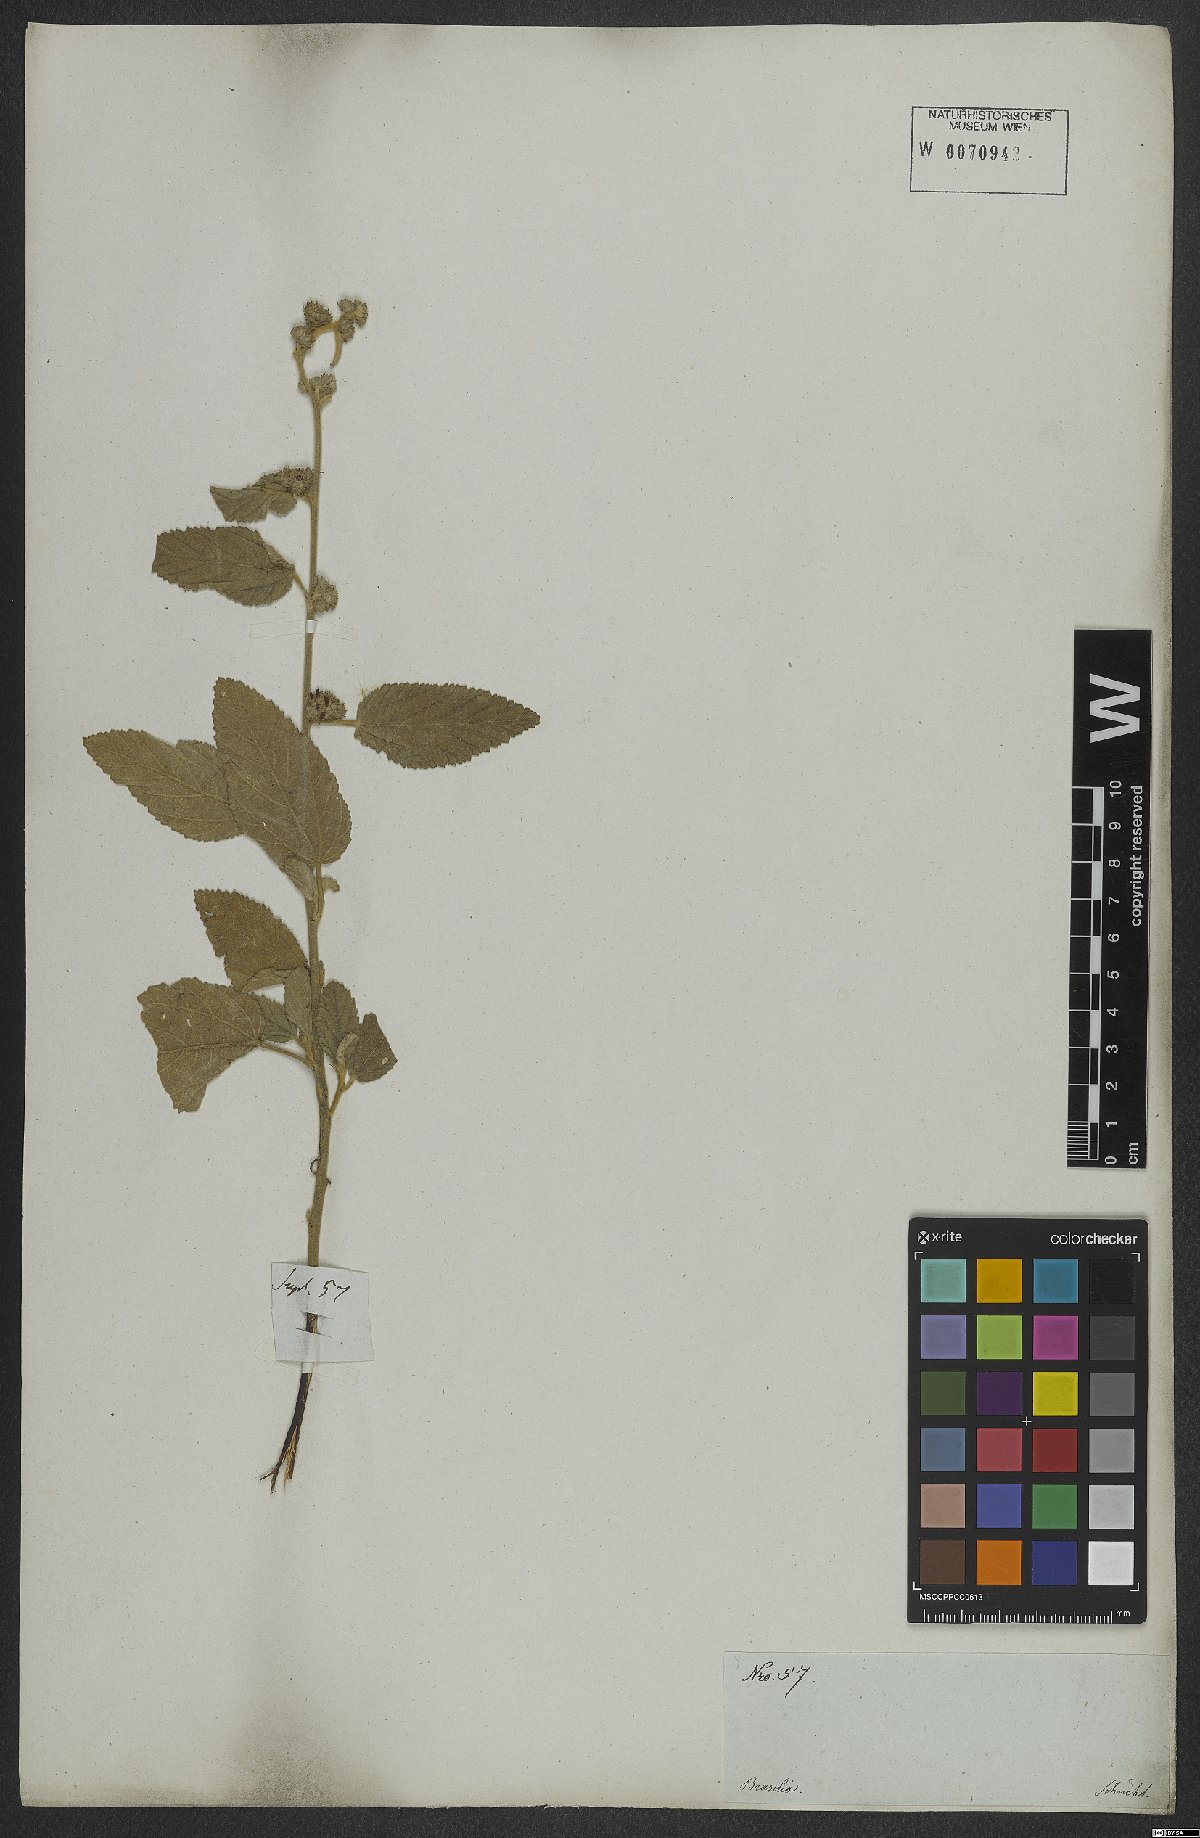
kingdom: Plantae
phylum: Tracheophyta
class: Magnoliopsida
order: Malvales
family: Malvaceae
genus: Waltheria
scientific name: Waltheria indica
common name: Leather-coat
